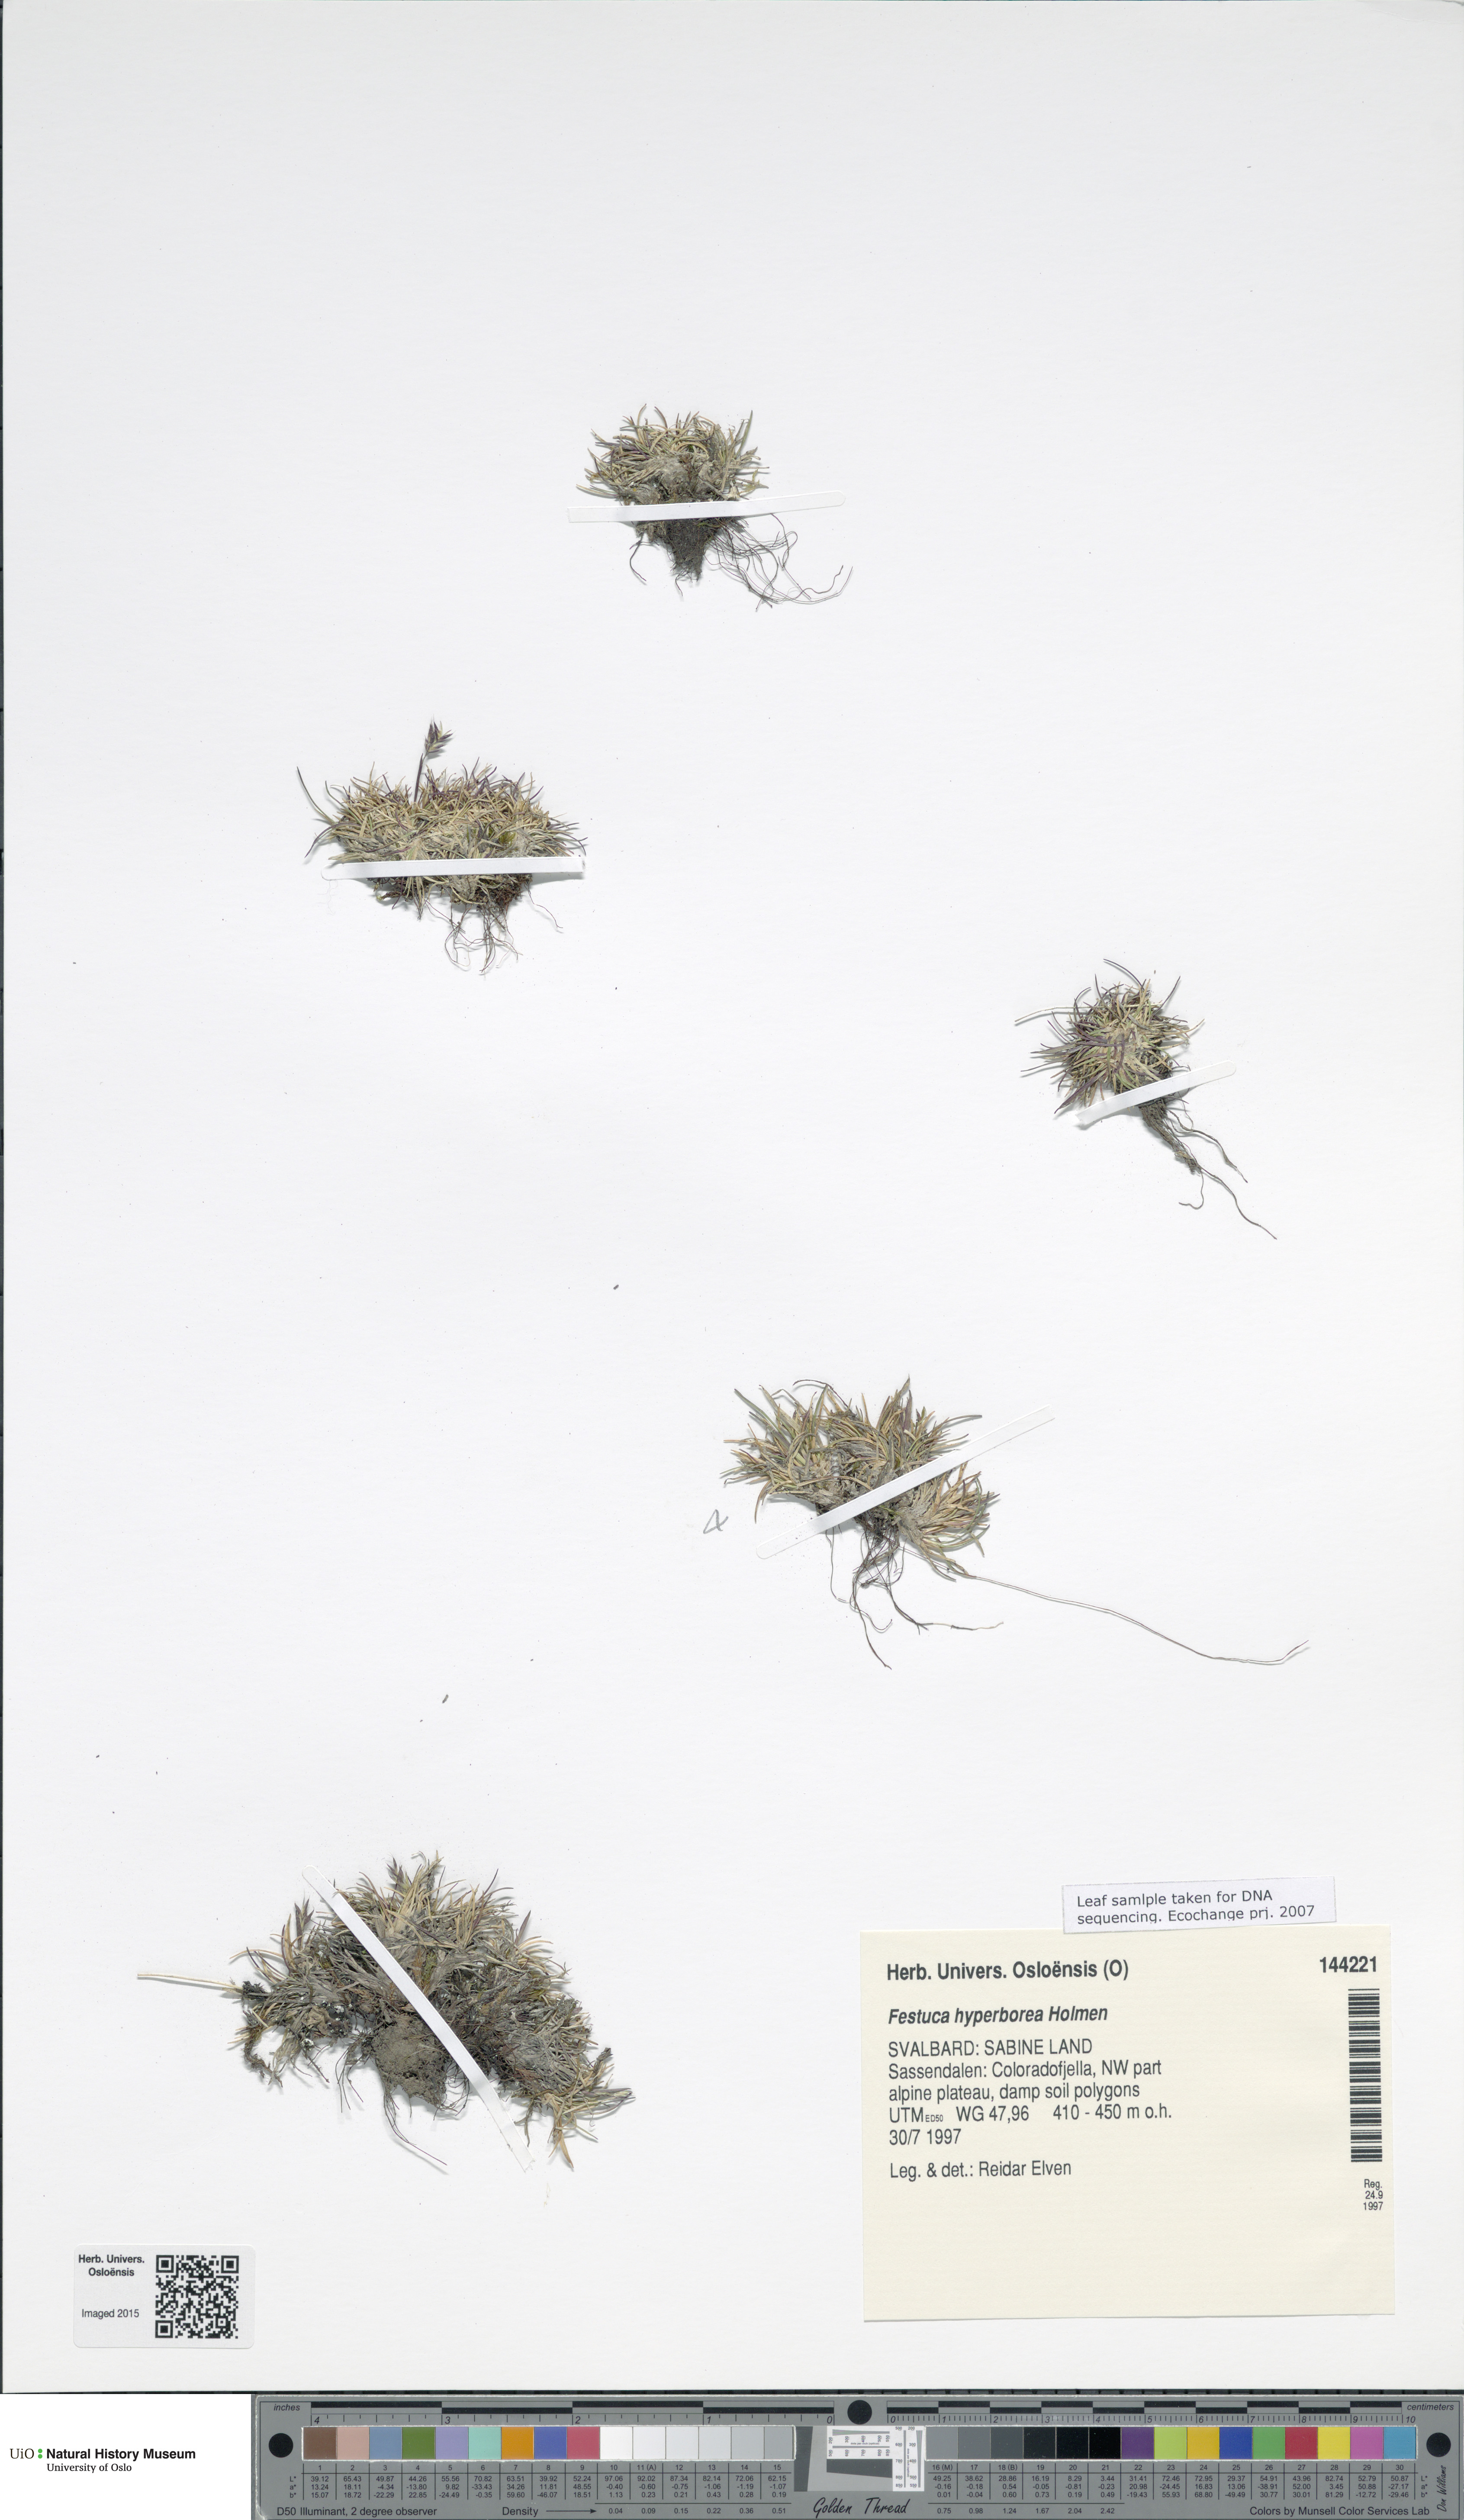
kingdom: Plantae
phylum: Tracheophyta
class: Liliopsida
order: Poales
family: Poaceae
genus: Festuca
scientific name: Festuca hyperborea
